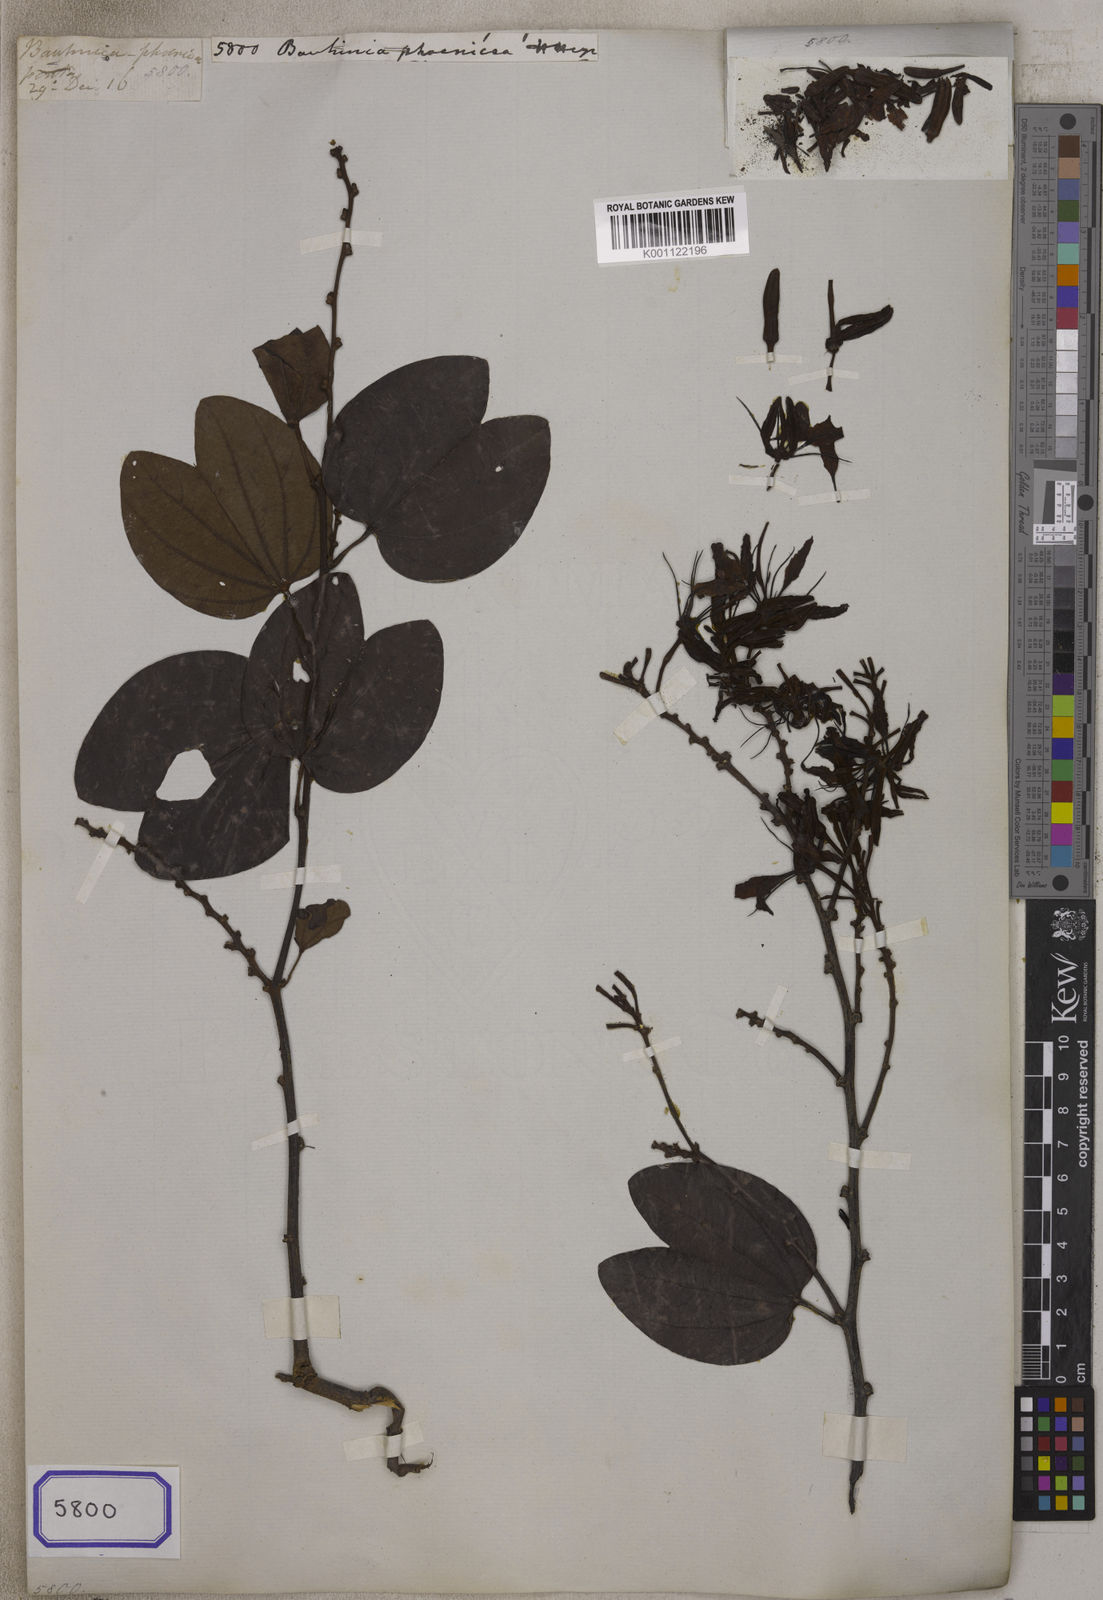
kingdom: Plantae
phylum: Tracheophyta
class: Magnoliopsida
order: Fabales
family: Fabaceae
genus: Bauhinia
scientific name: Bauhinia
